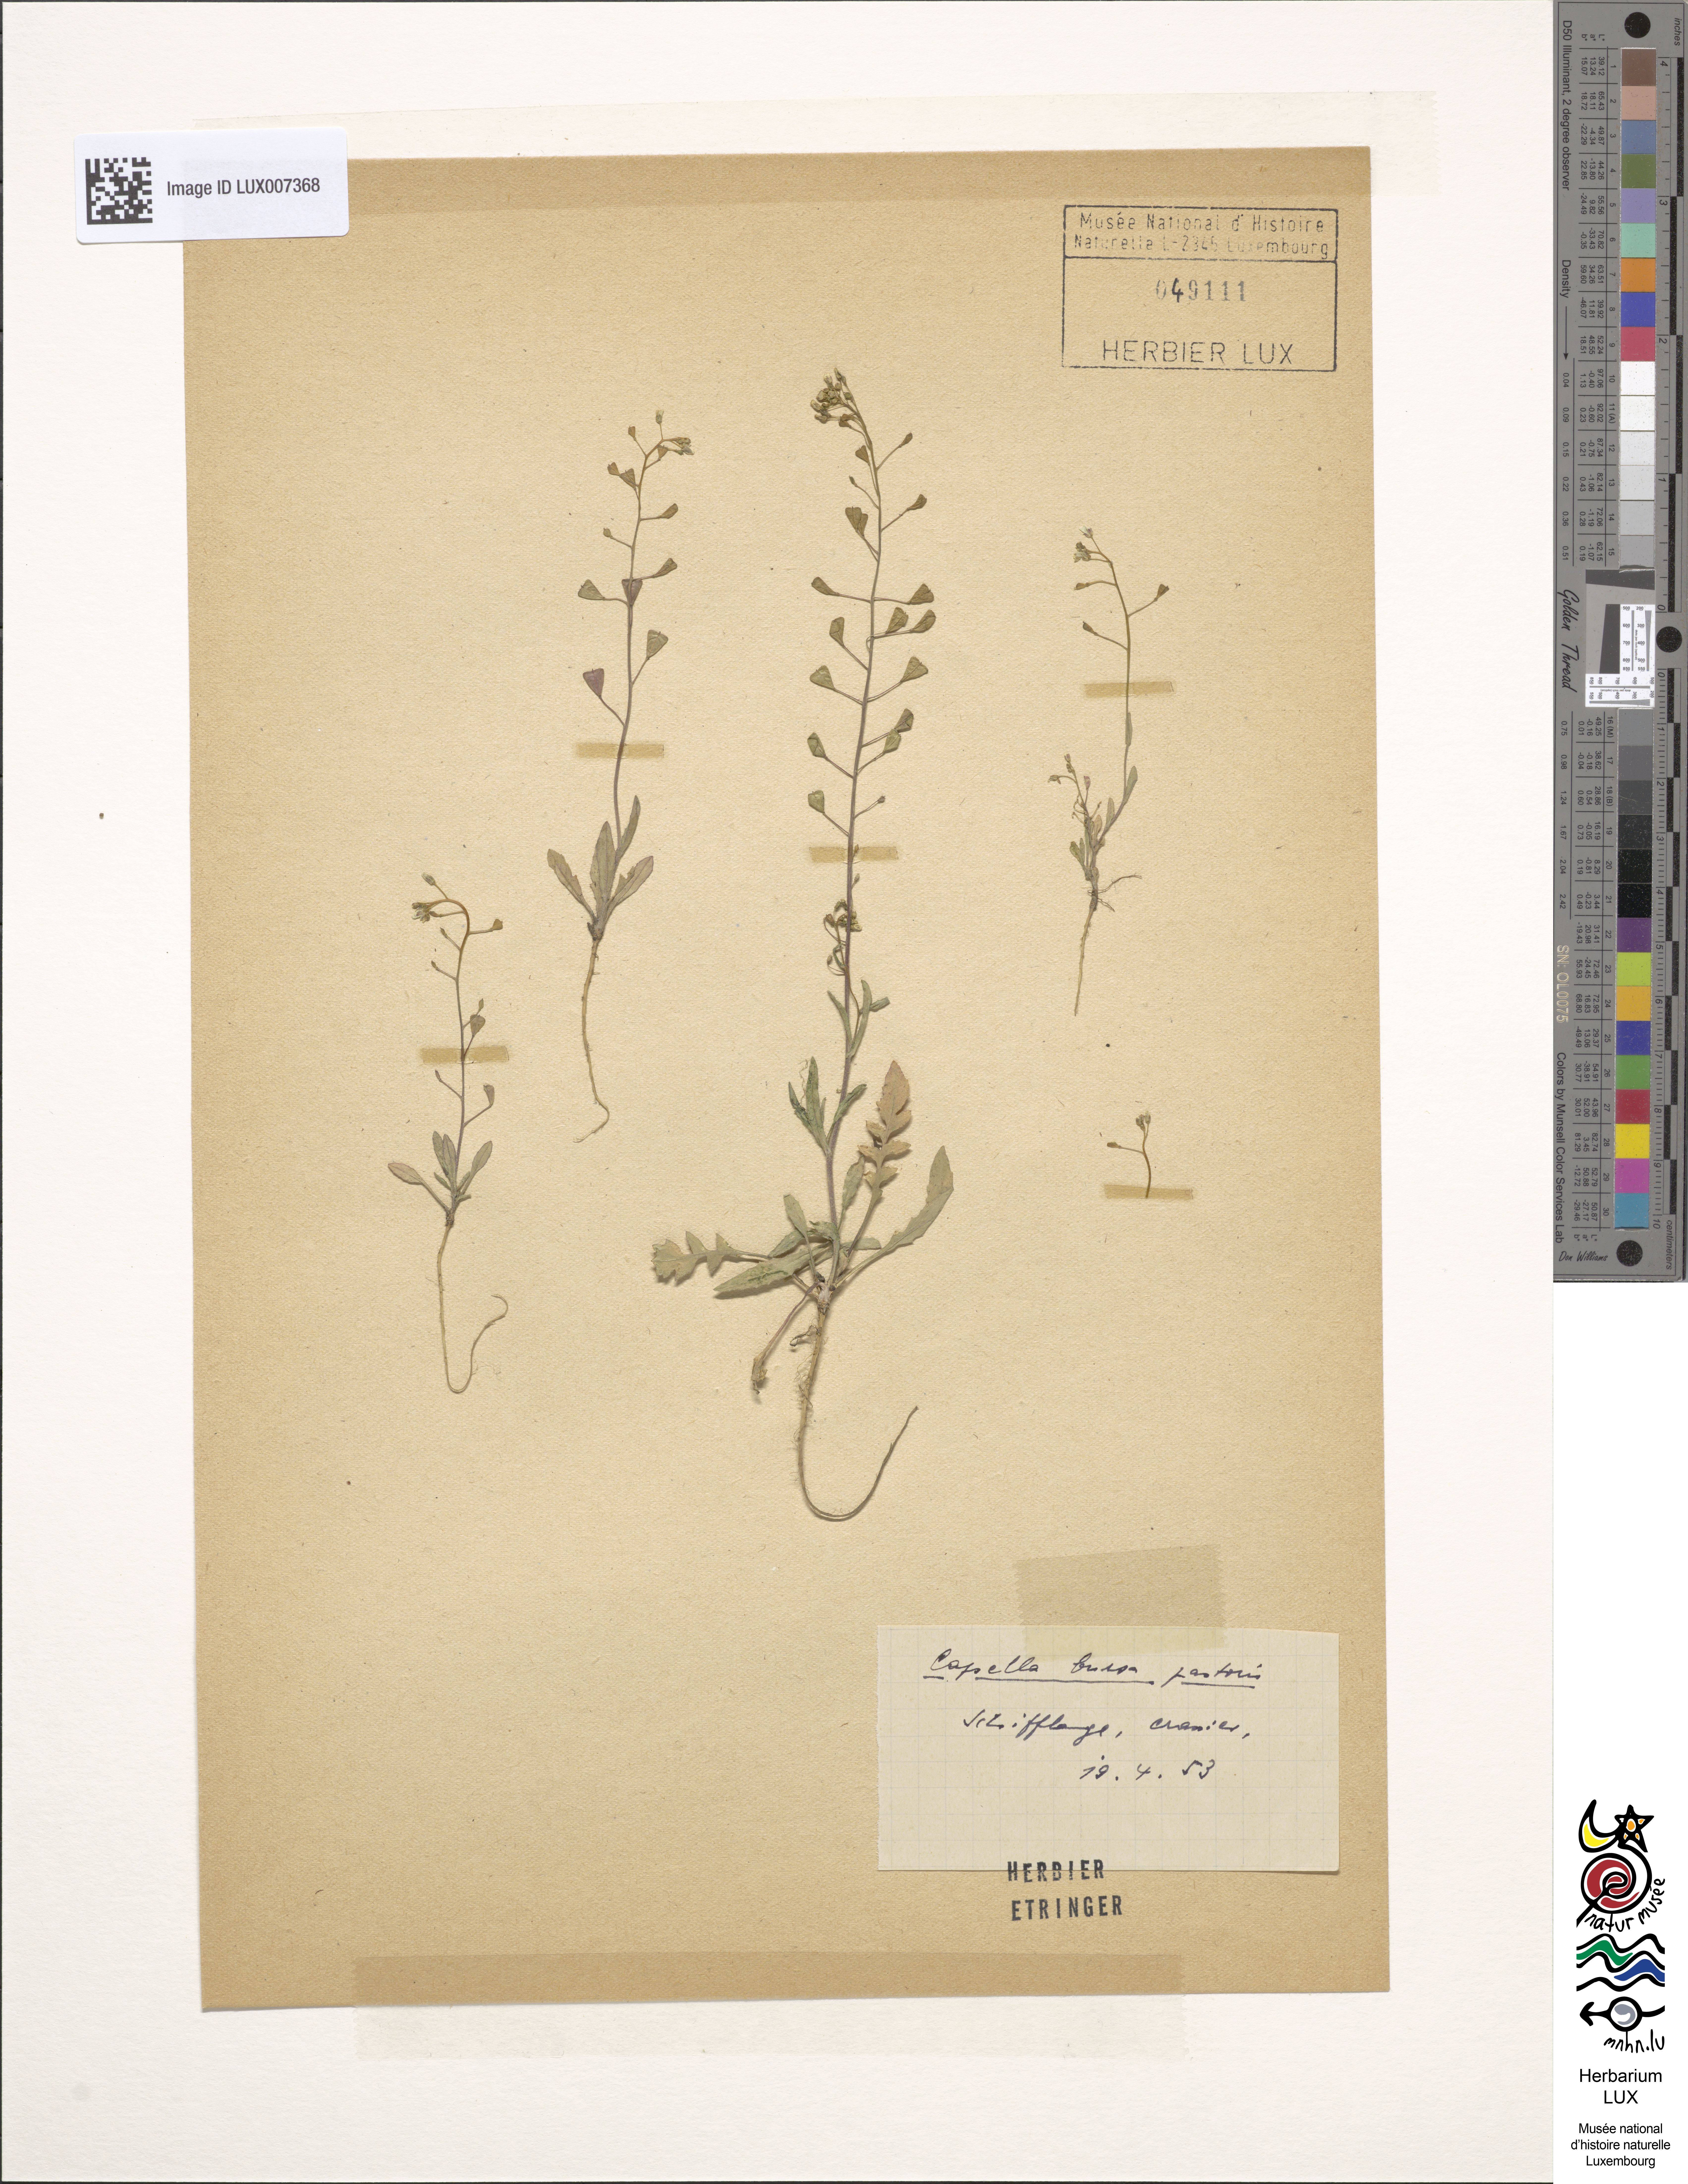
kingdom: Plantae
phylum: Tracheophyta
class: Magnoliopsida
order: Brassicales
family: Brassicaceae
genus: Capsella
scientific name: Capsella bursa-pastoris
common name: Shepherd's purse
